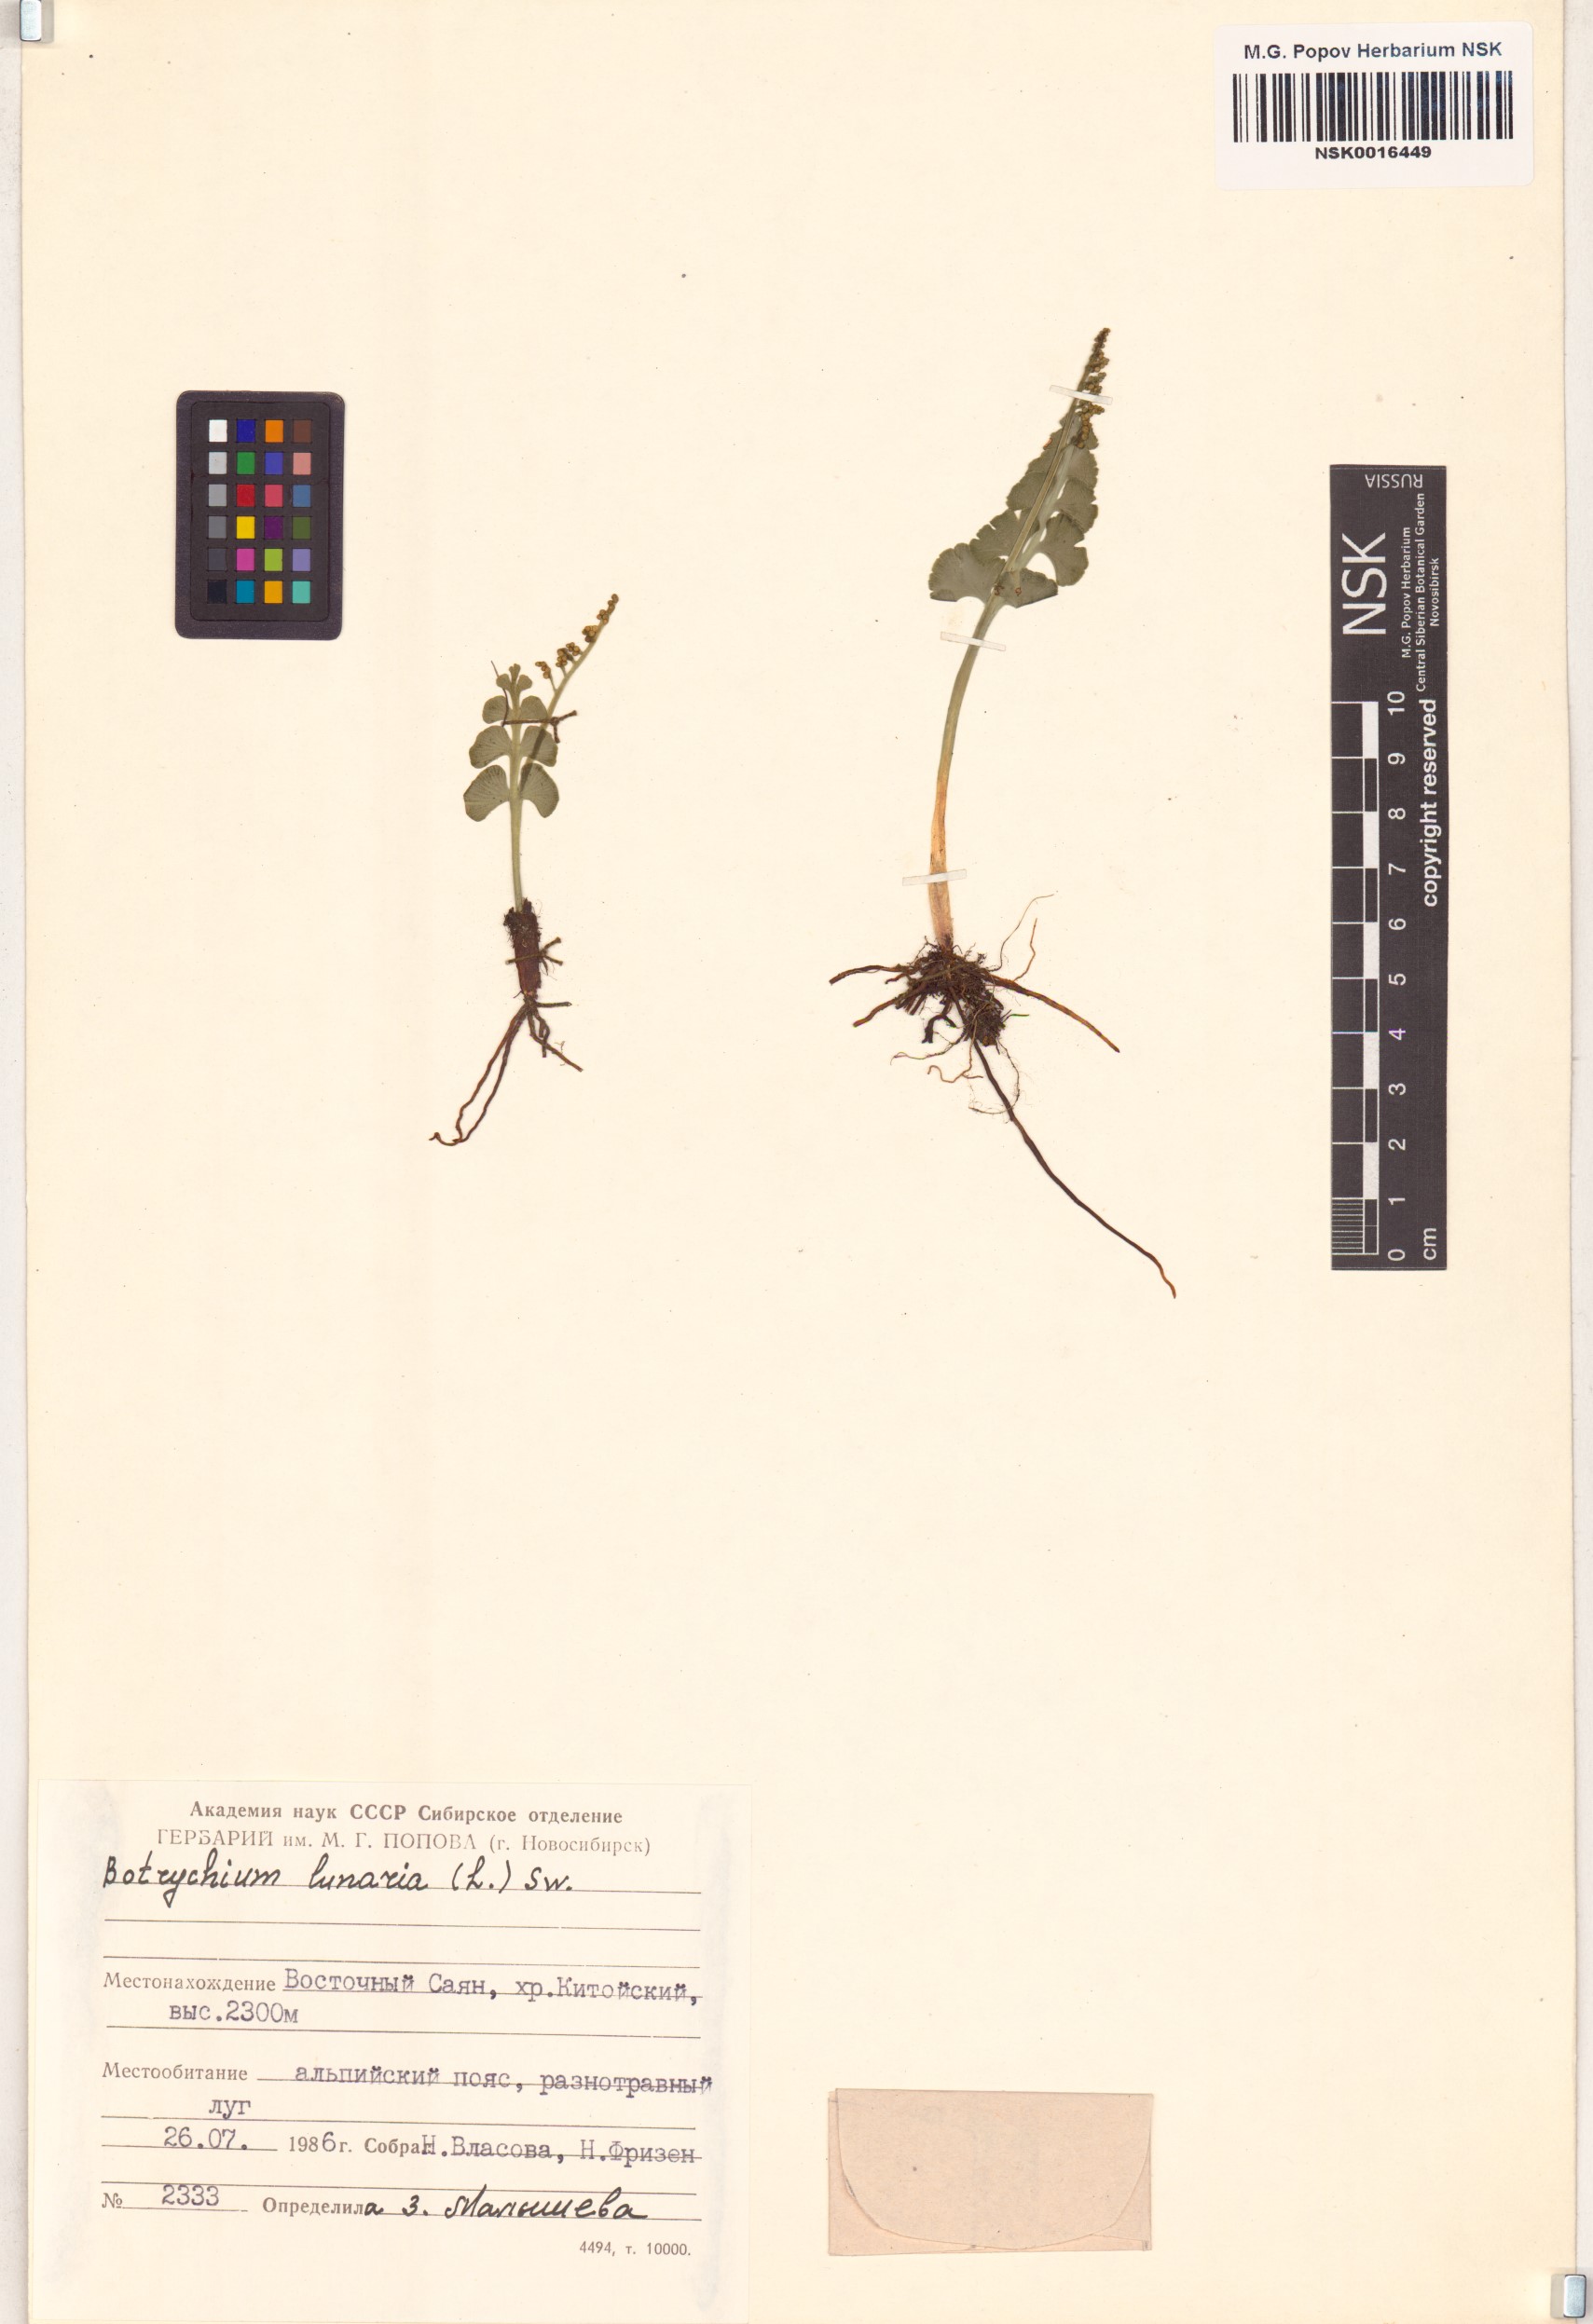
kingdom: Plantae
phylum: Tracheophyta
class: Polypodiopsida
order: Ophioglossales
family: Ophioglossaceae
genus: Botrychium
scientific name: Botrychium lunaria
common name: Moonwort
